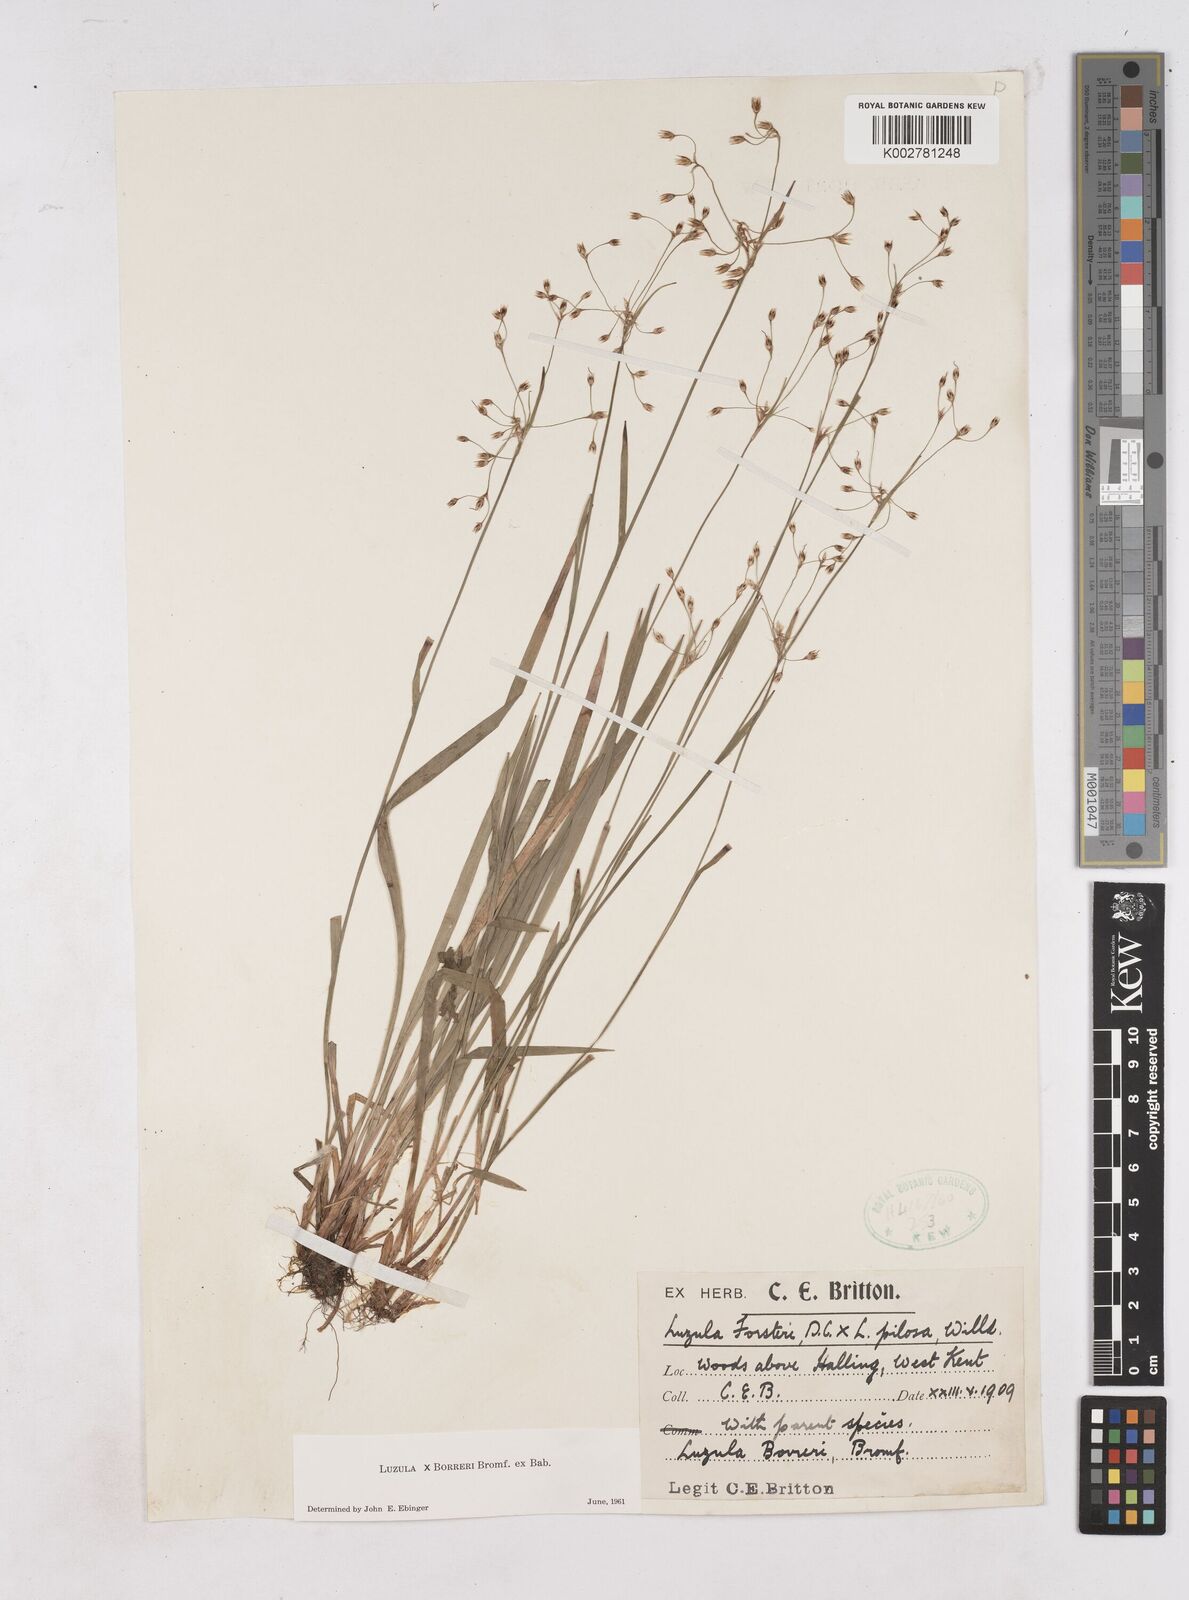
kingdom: Plantae
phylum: Tracheophyta
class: Liliopsida
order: Poales
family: Juncaceae
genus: Luzula
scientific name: Luzula forsteri
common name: Southern wood-rush
